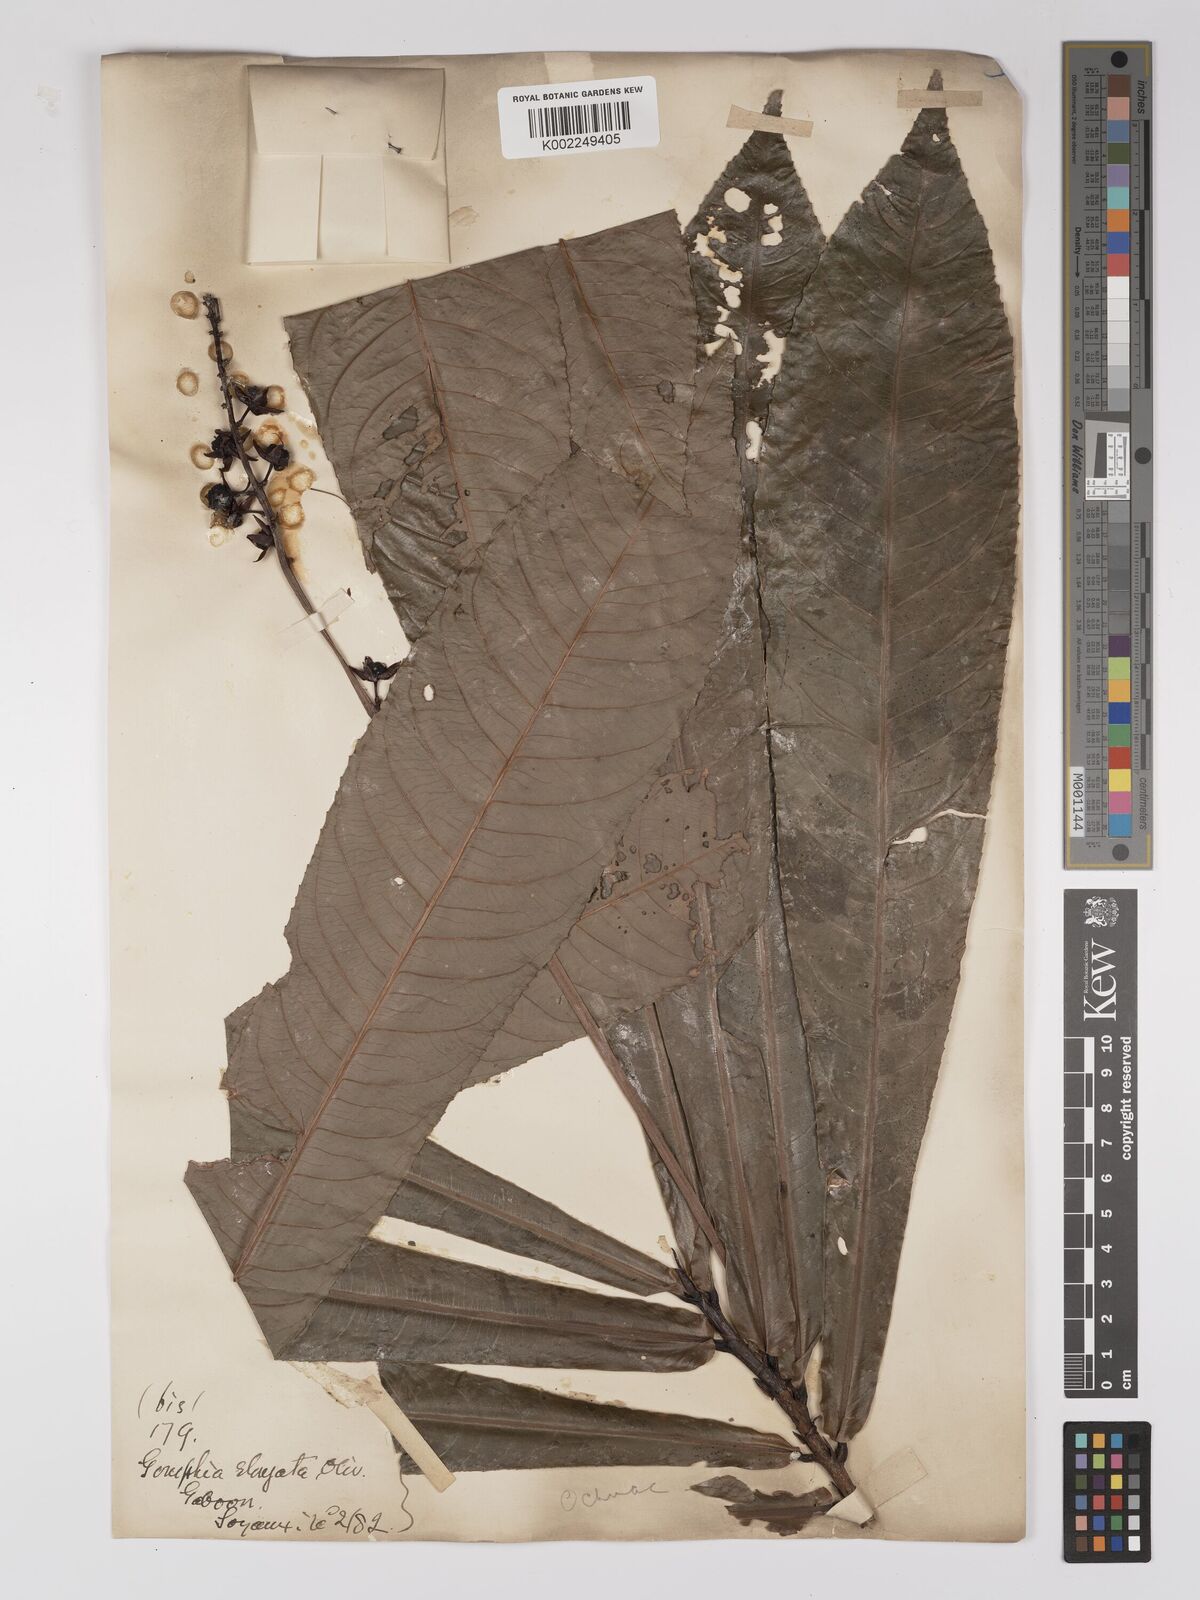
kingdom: Plantae
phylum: Tracheophyta
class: Magnoliopsida
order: Malpighiales
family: Ochnaceae
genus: Gomphia
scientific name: Gomphia elongata
